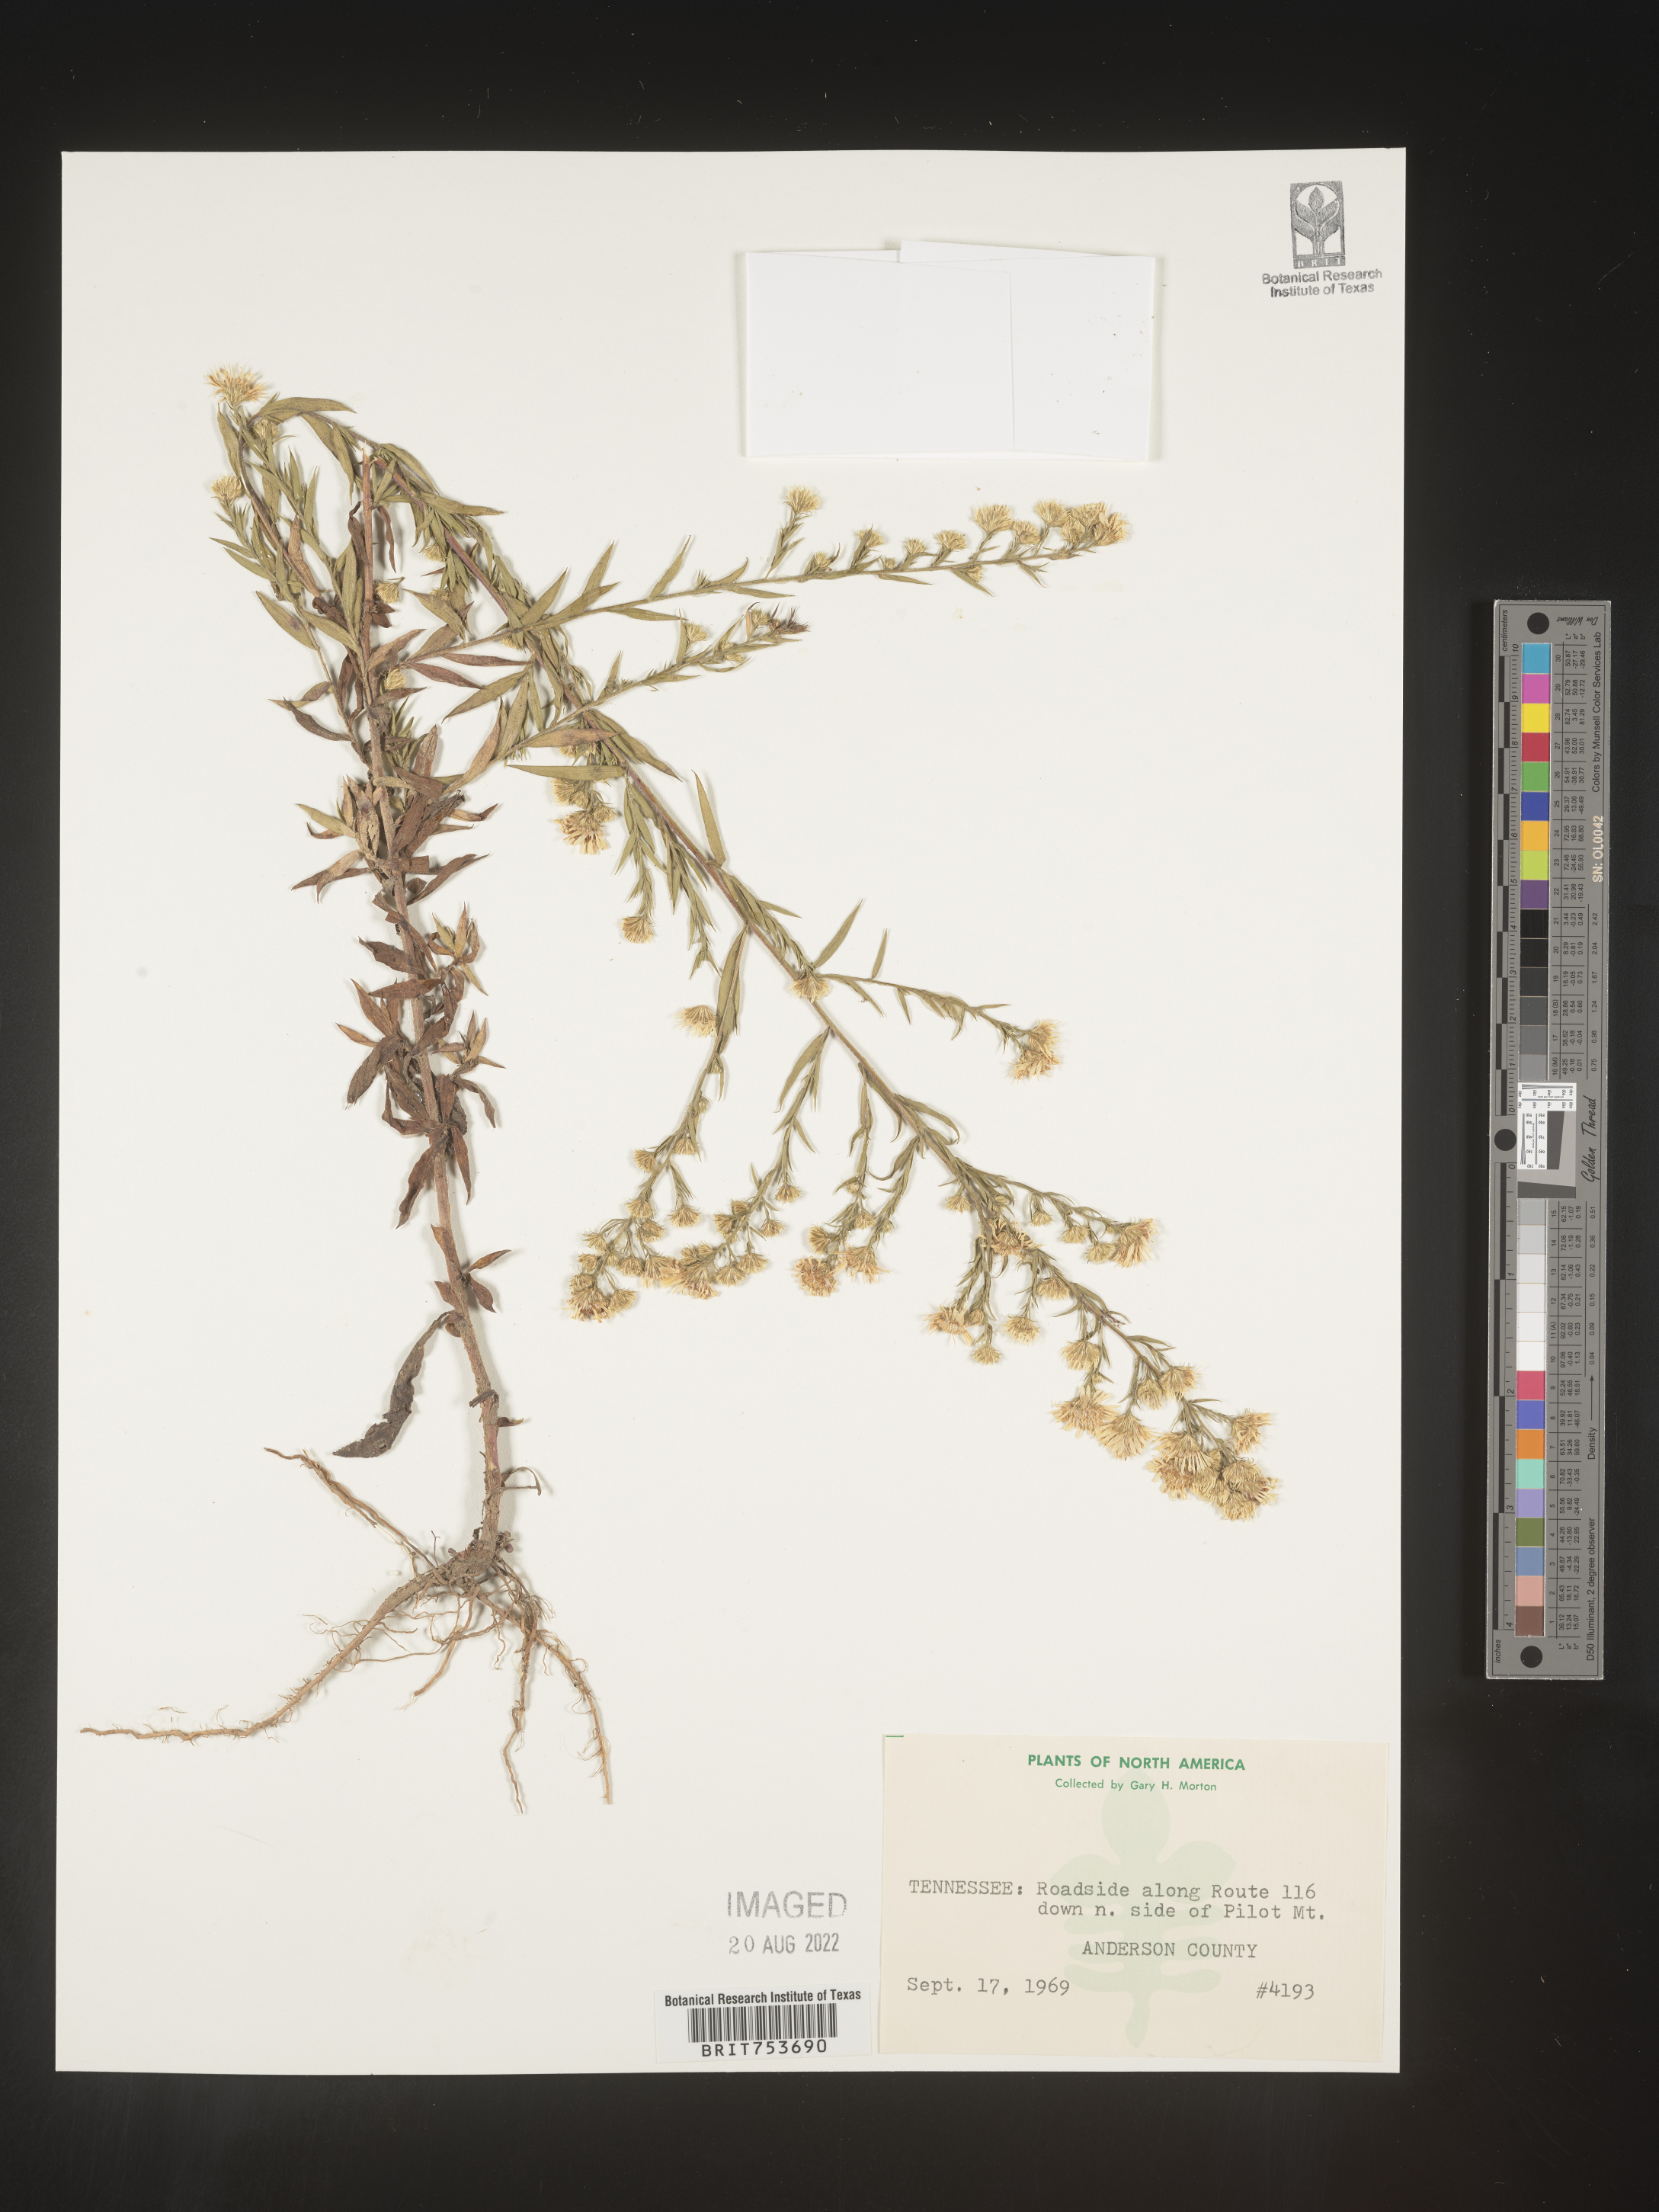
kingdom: Plantae
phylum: Tracheophyta
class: Magnoliopsida
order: Asterales
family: Asteraceae
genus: Symphyotrichum
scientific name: Symphyotrichum pilosum
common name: Awl aster
